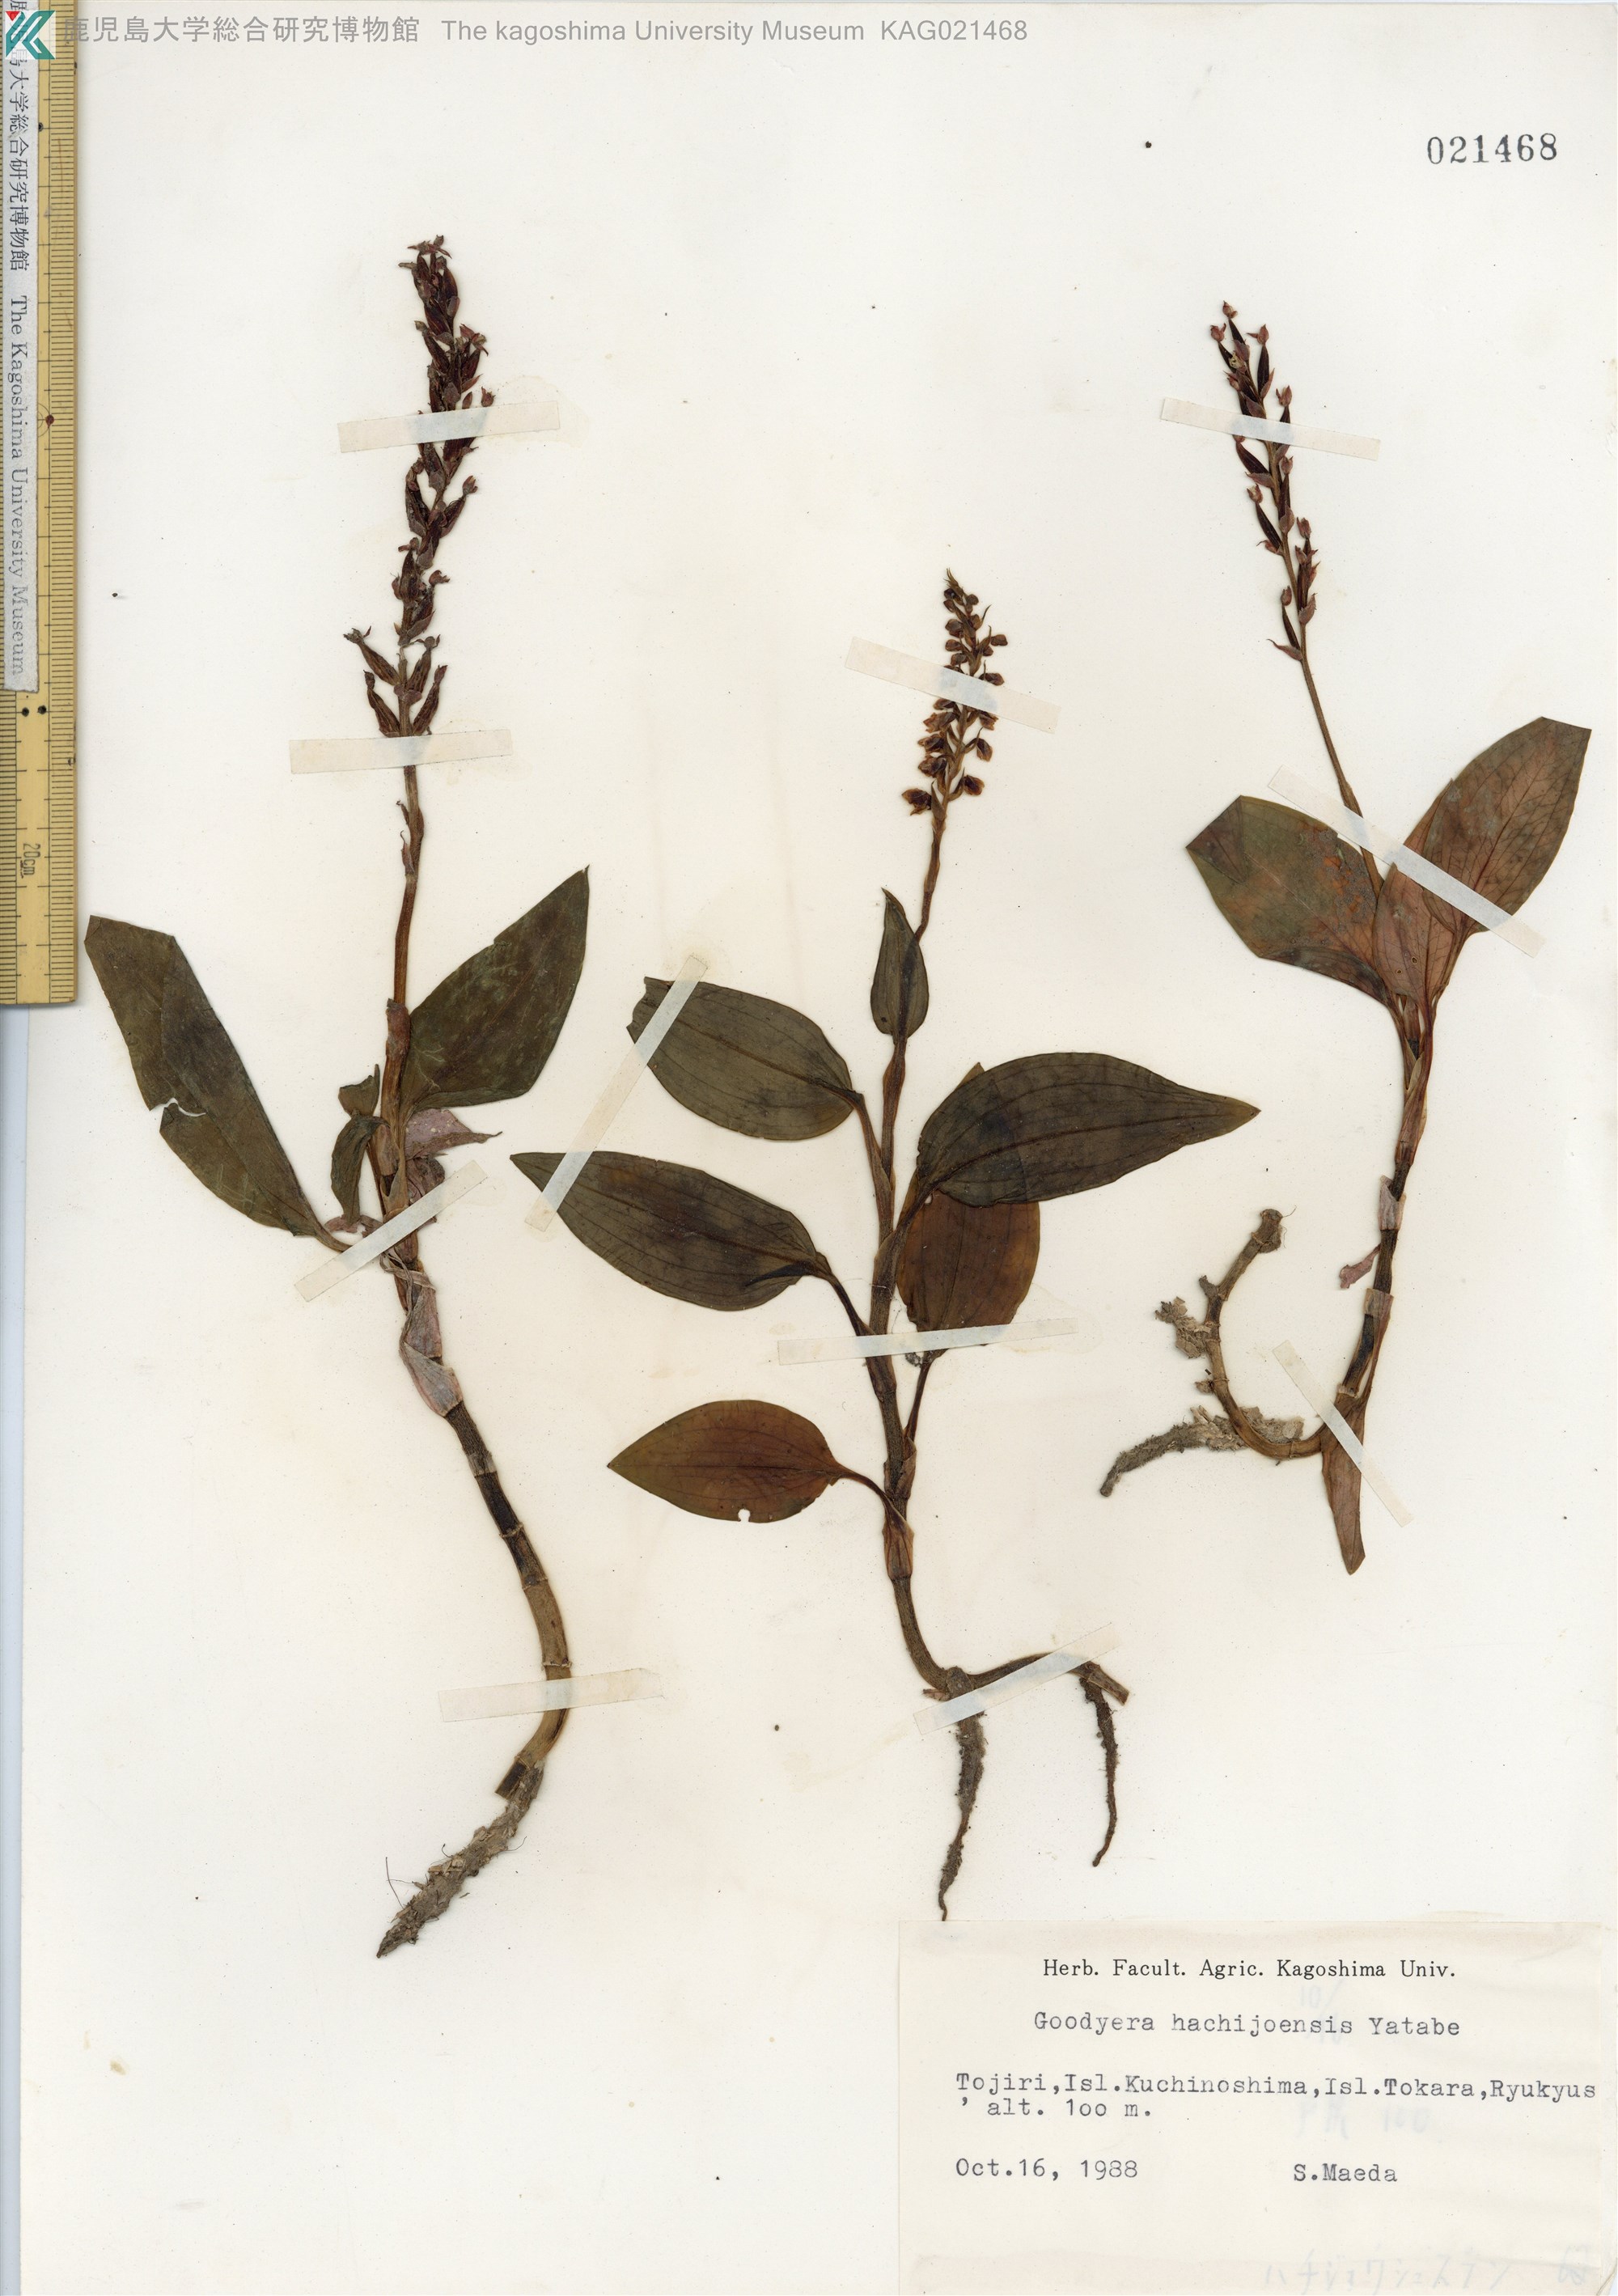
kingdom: Plantae
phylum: Tracheophyta
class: Liliopsida
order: Asparagales
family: Orchidaceae
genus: Goodyera
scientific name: Goodyera hachijoensis
